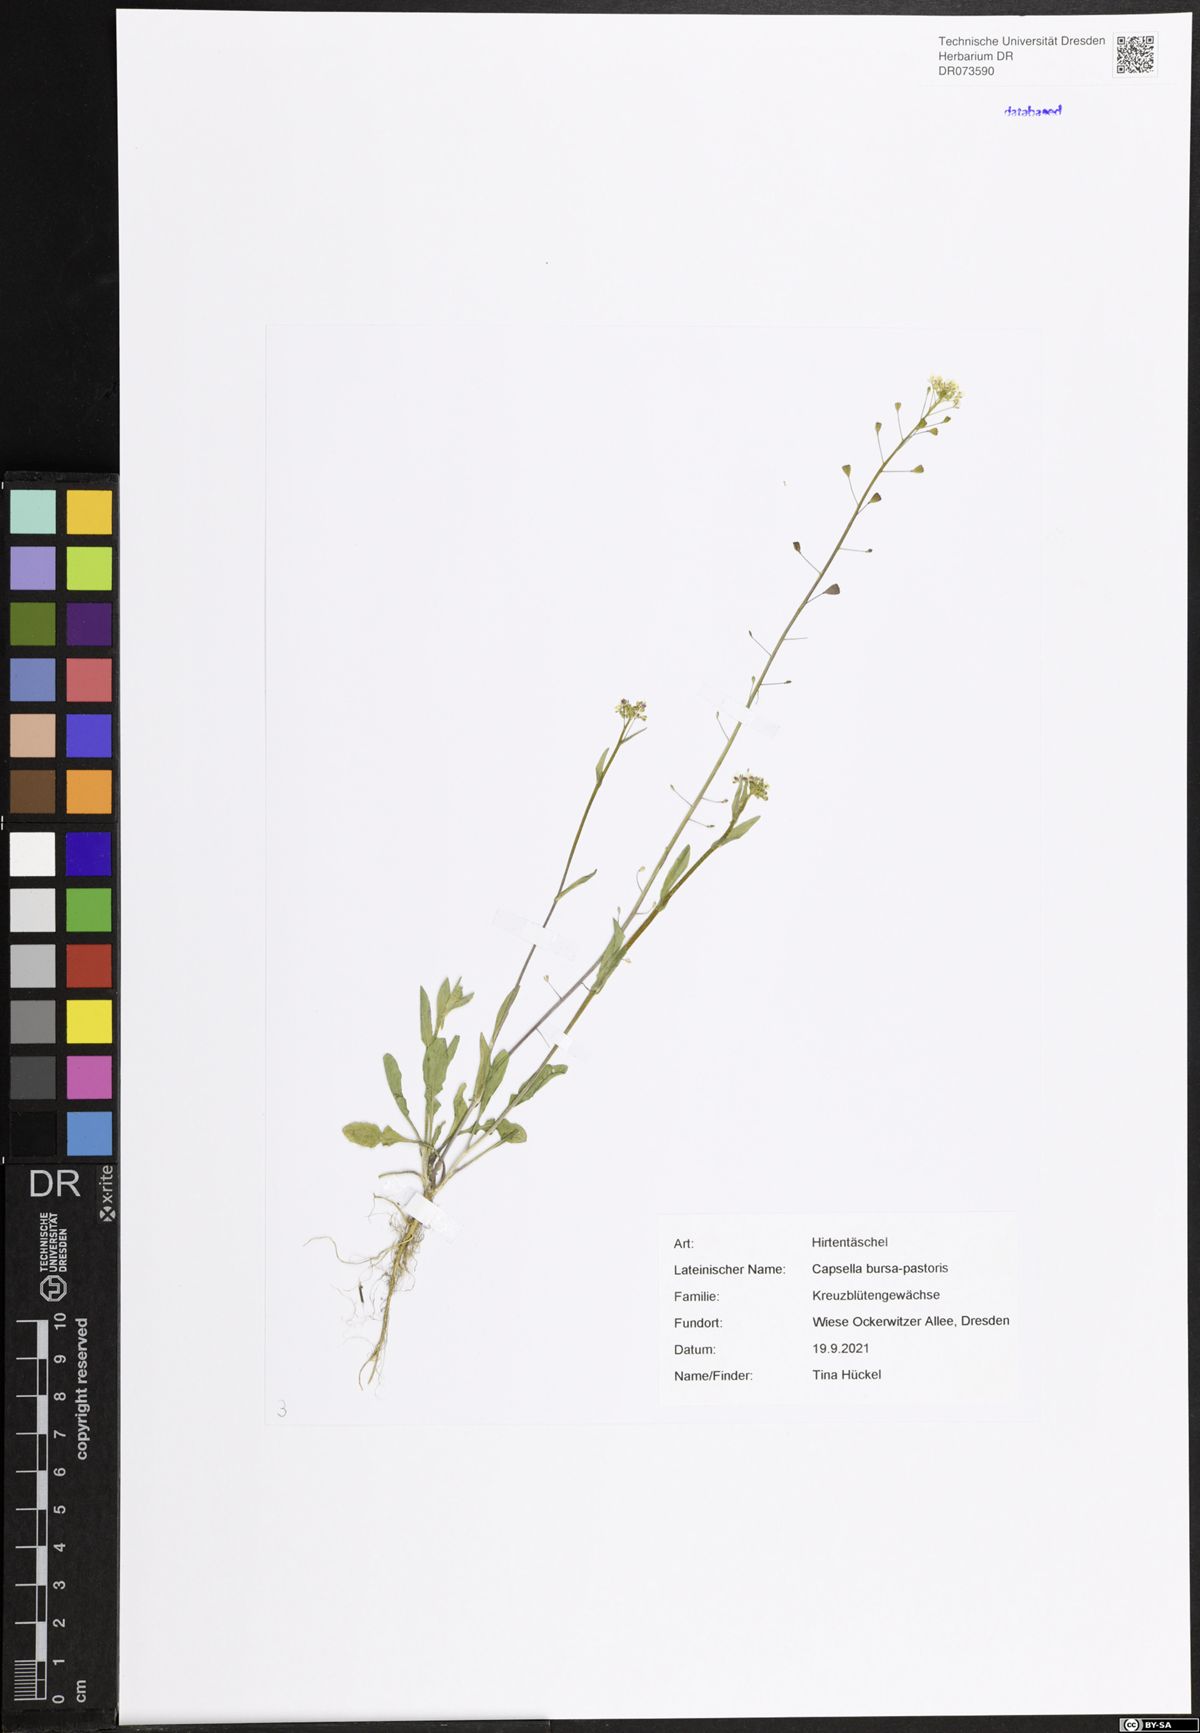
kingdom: Plantae
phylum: Tracheophyta
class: Magnoliopsida
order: Brassicales
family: Brassicaceae
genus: Capsella
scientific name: Capsella bursa-pastoris
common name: Shepherd's purse
